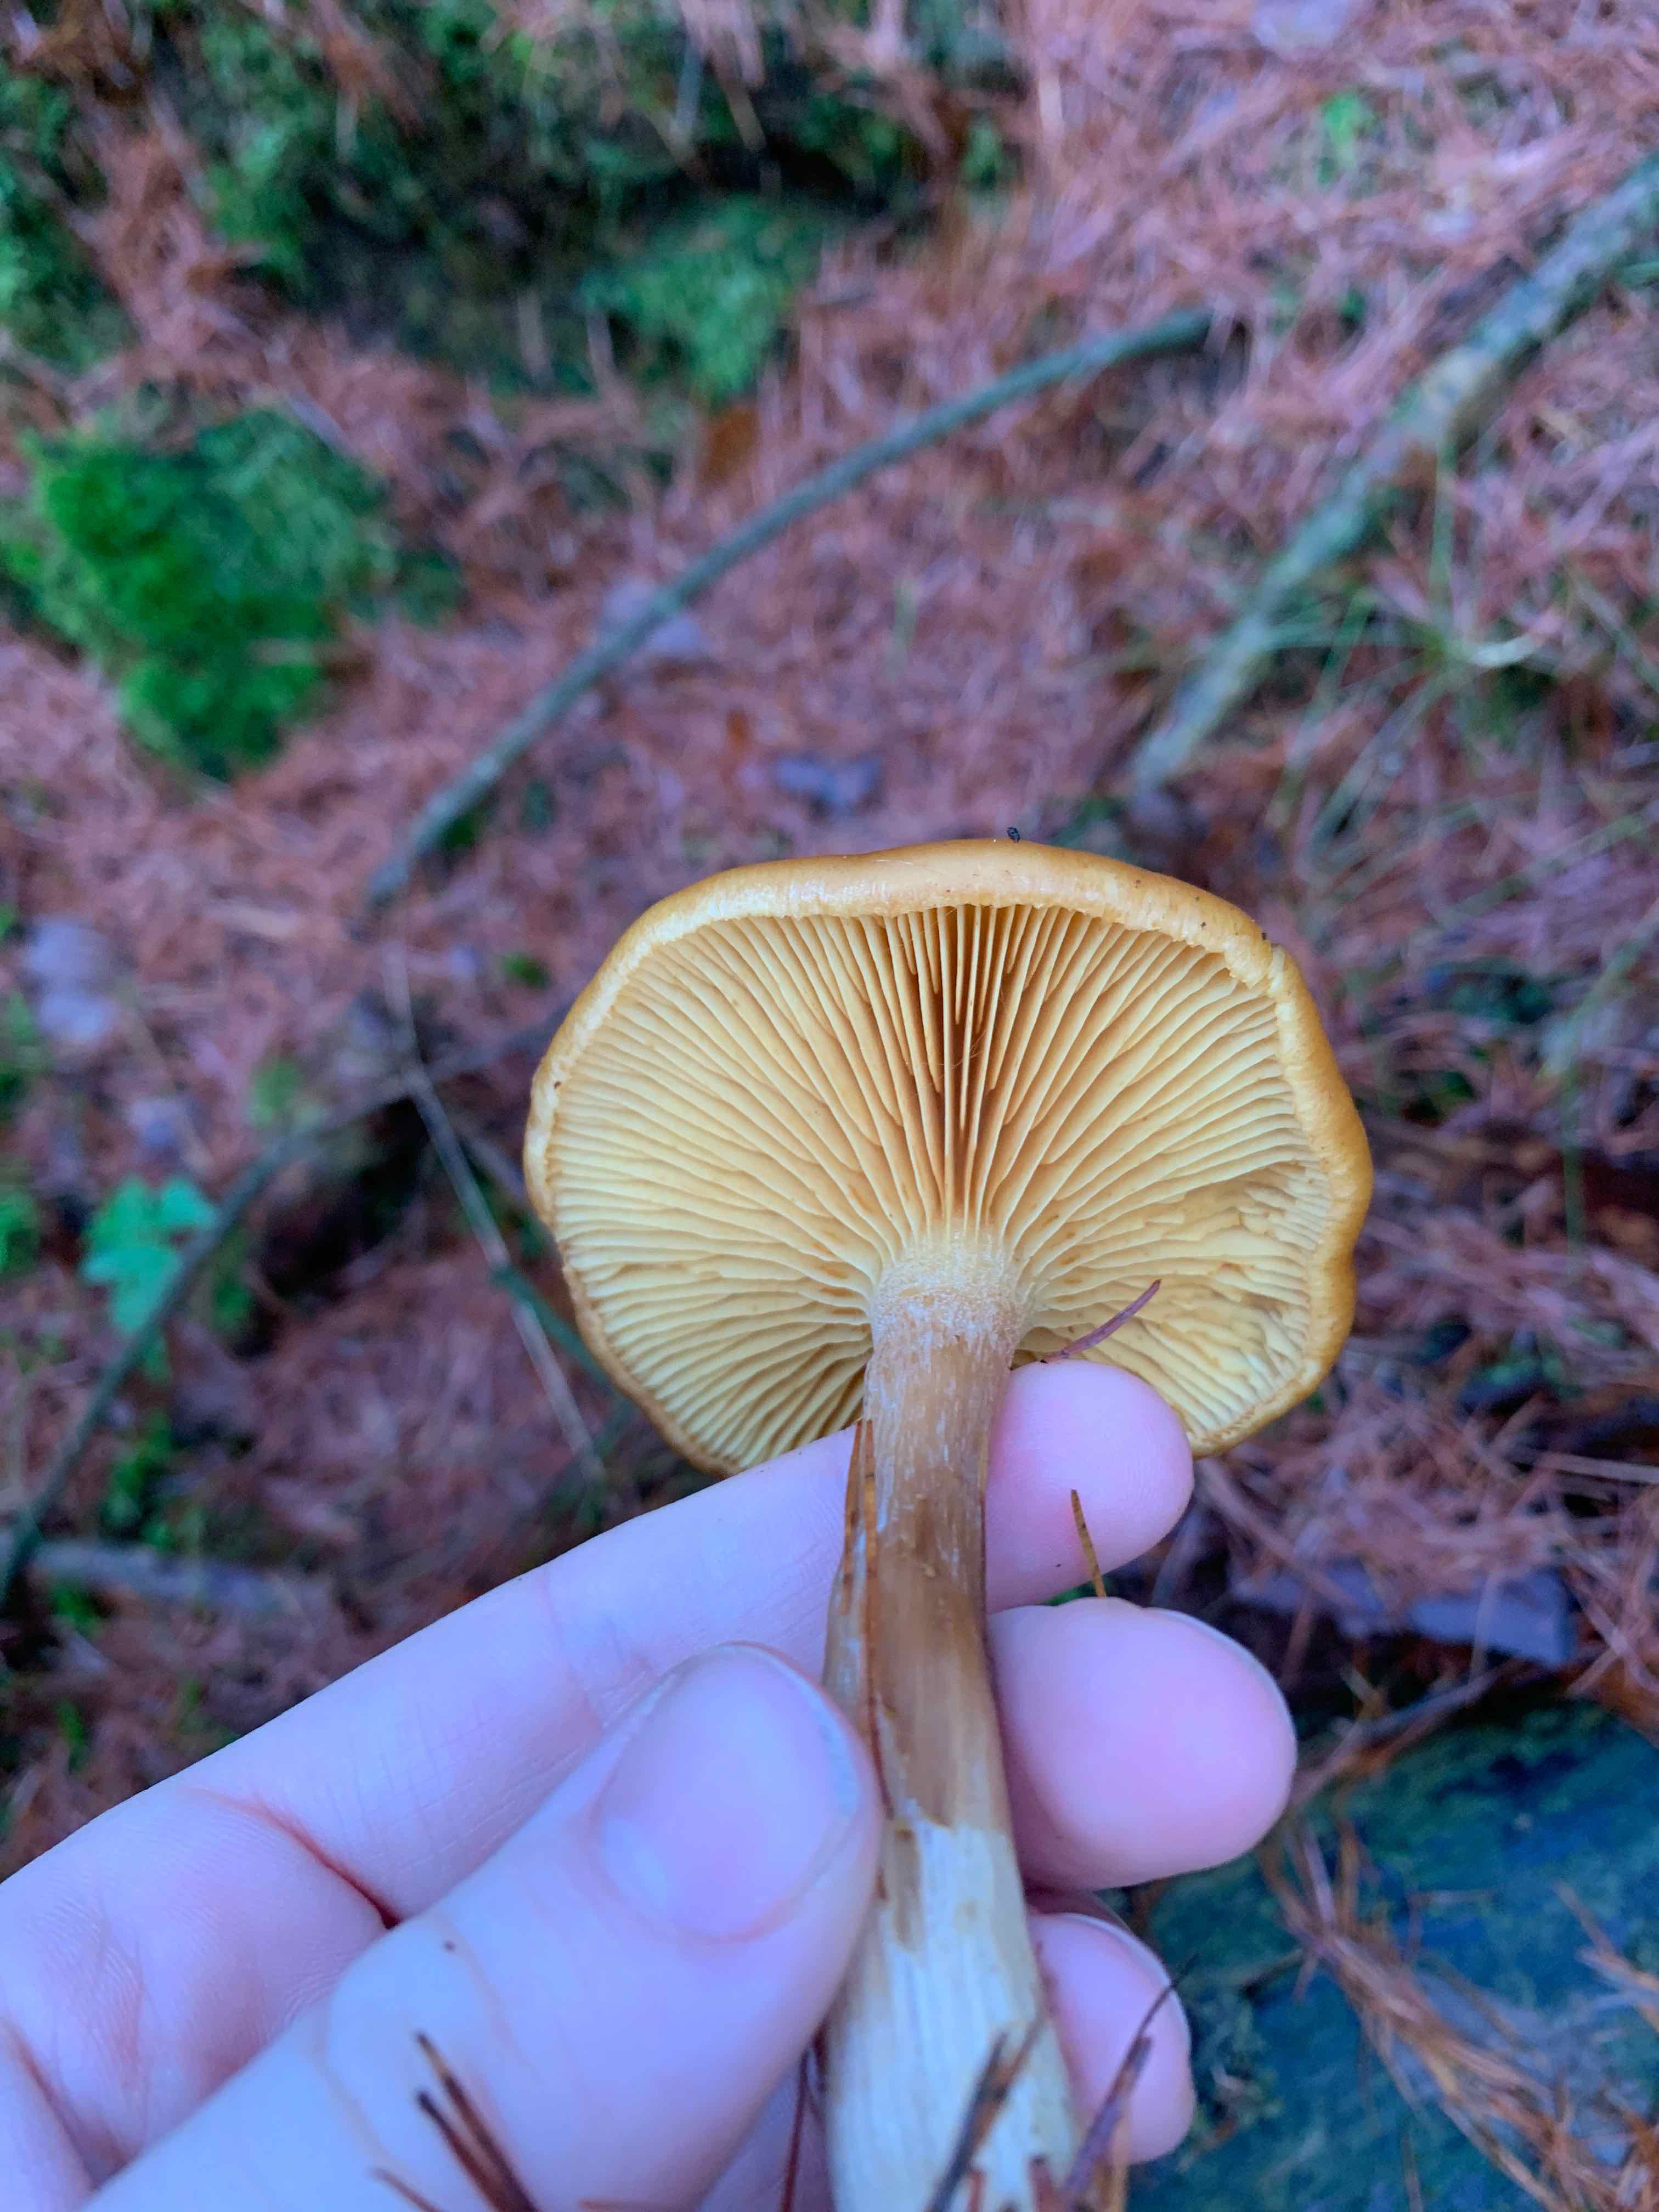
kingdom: Fungi
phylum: Basidiomycota
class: Agaricomycetes
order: Agaricales
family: Hymenogastraceae
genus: Gymnopilus
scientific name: Gymnopilus penetrans
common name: plettet flammehat
